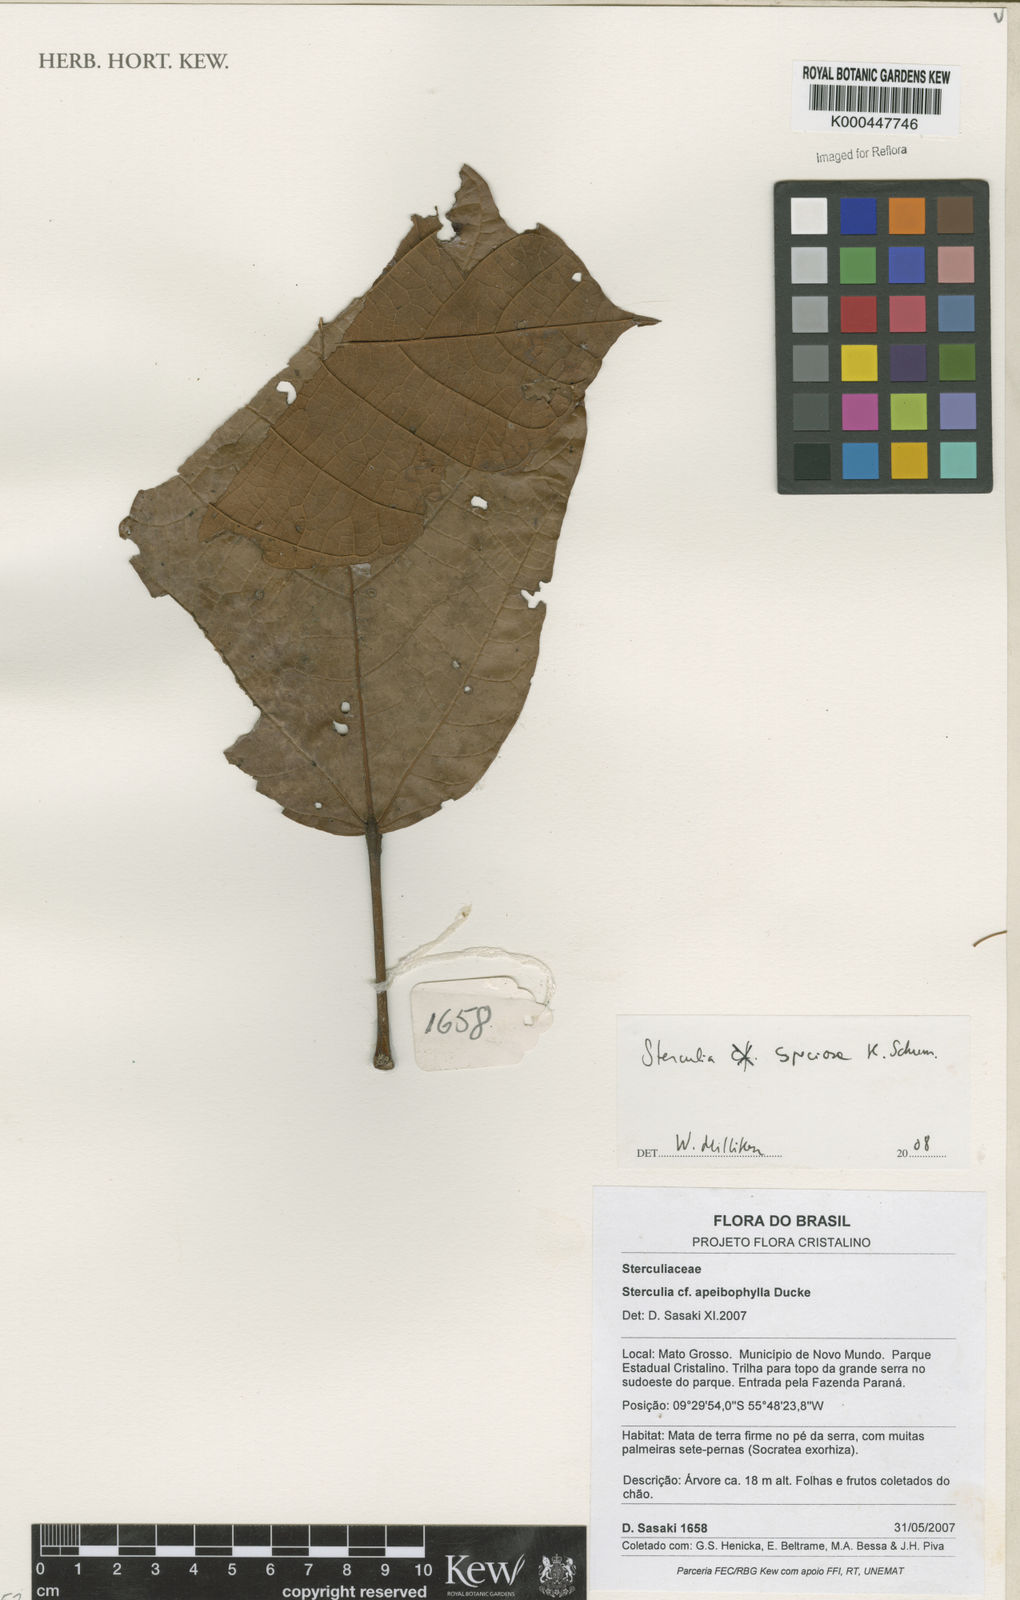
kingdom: Plantae
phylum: Tracheophyta
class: Magnoliopsida
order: Malvales
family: Malvaceae
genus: Sterculia
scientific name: Sterculia speciosa
